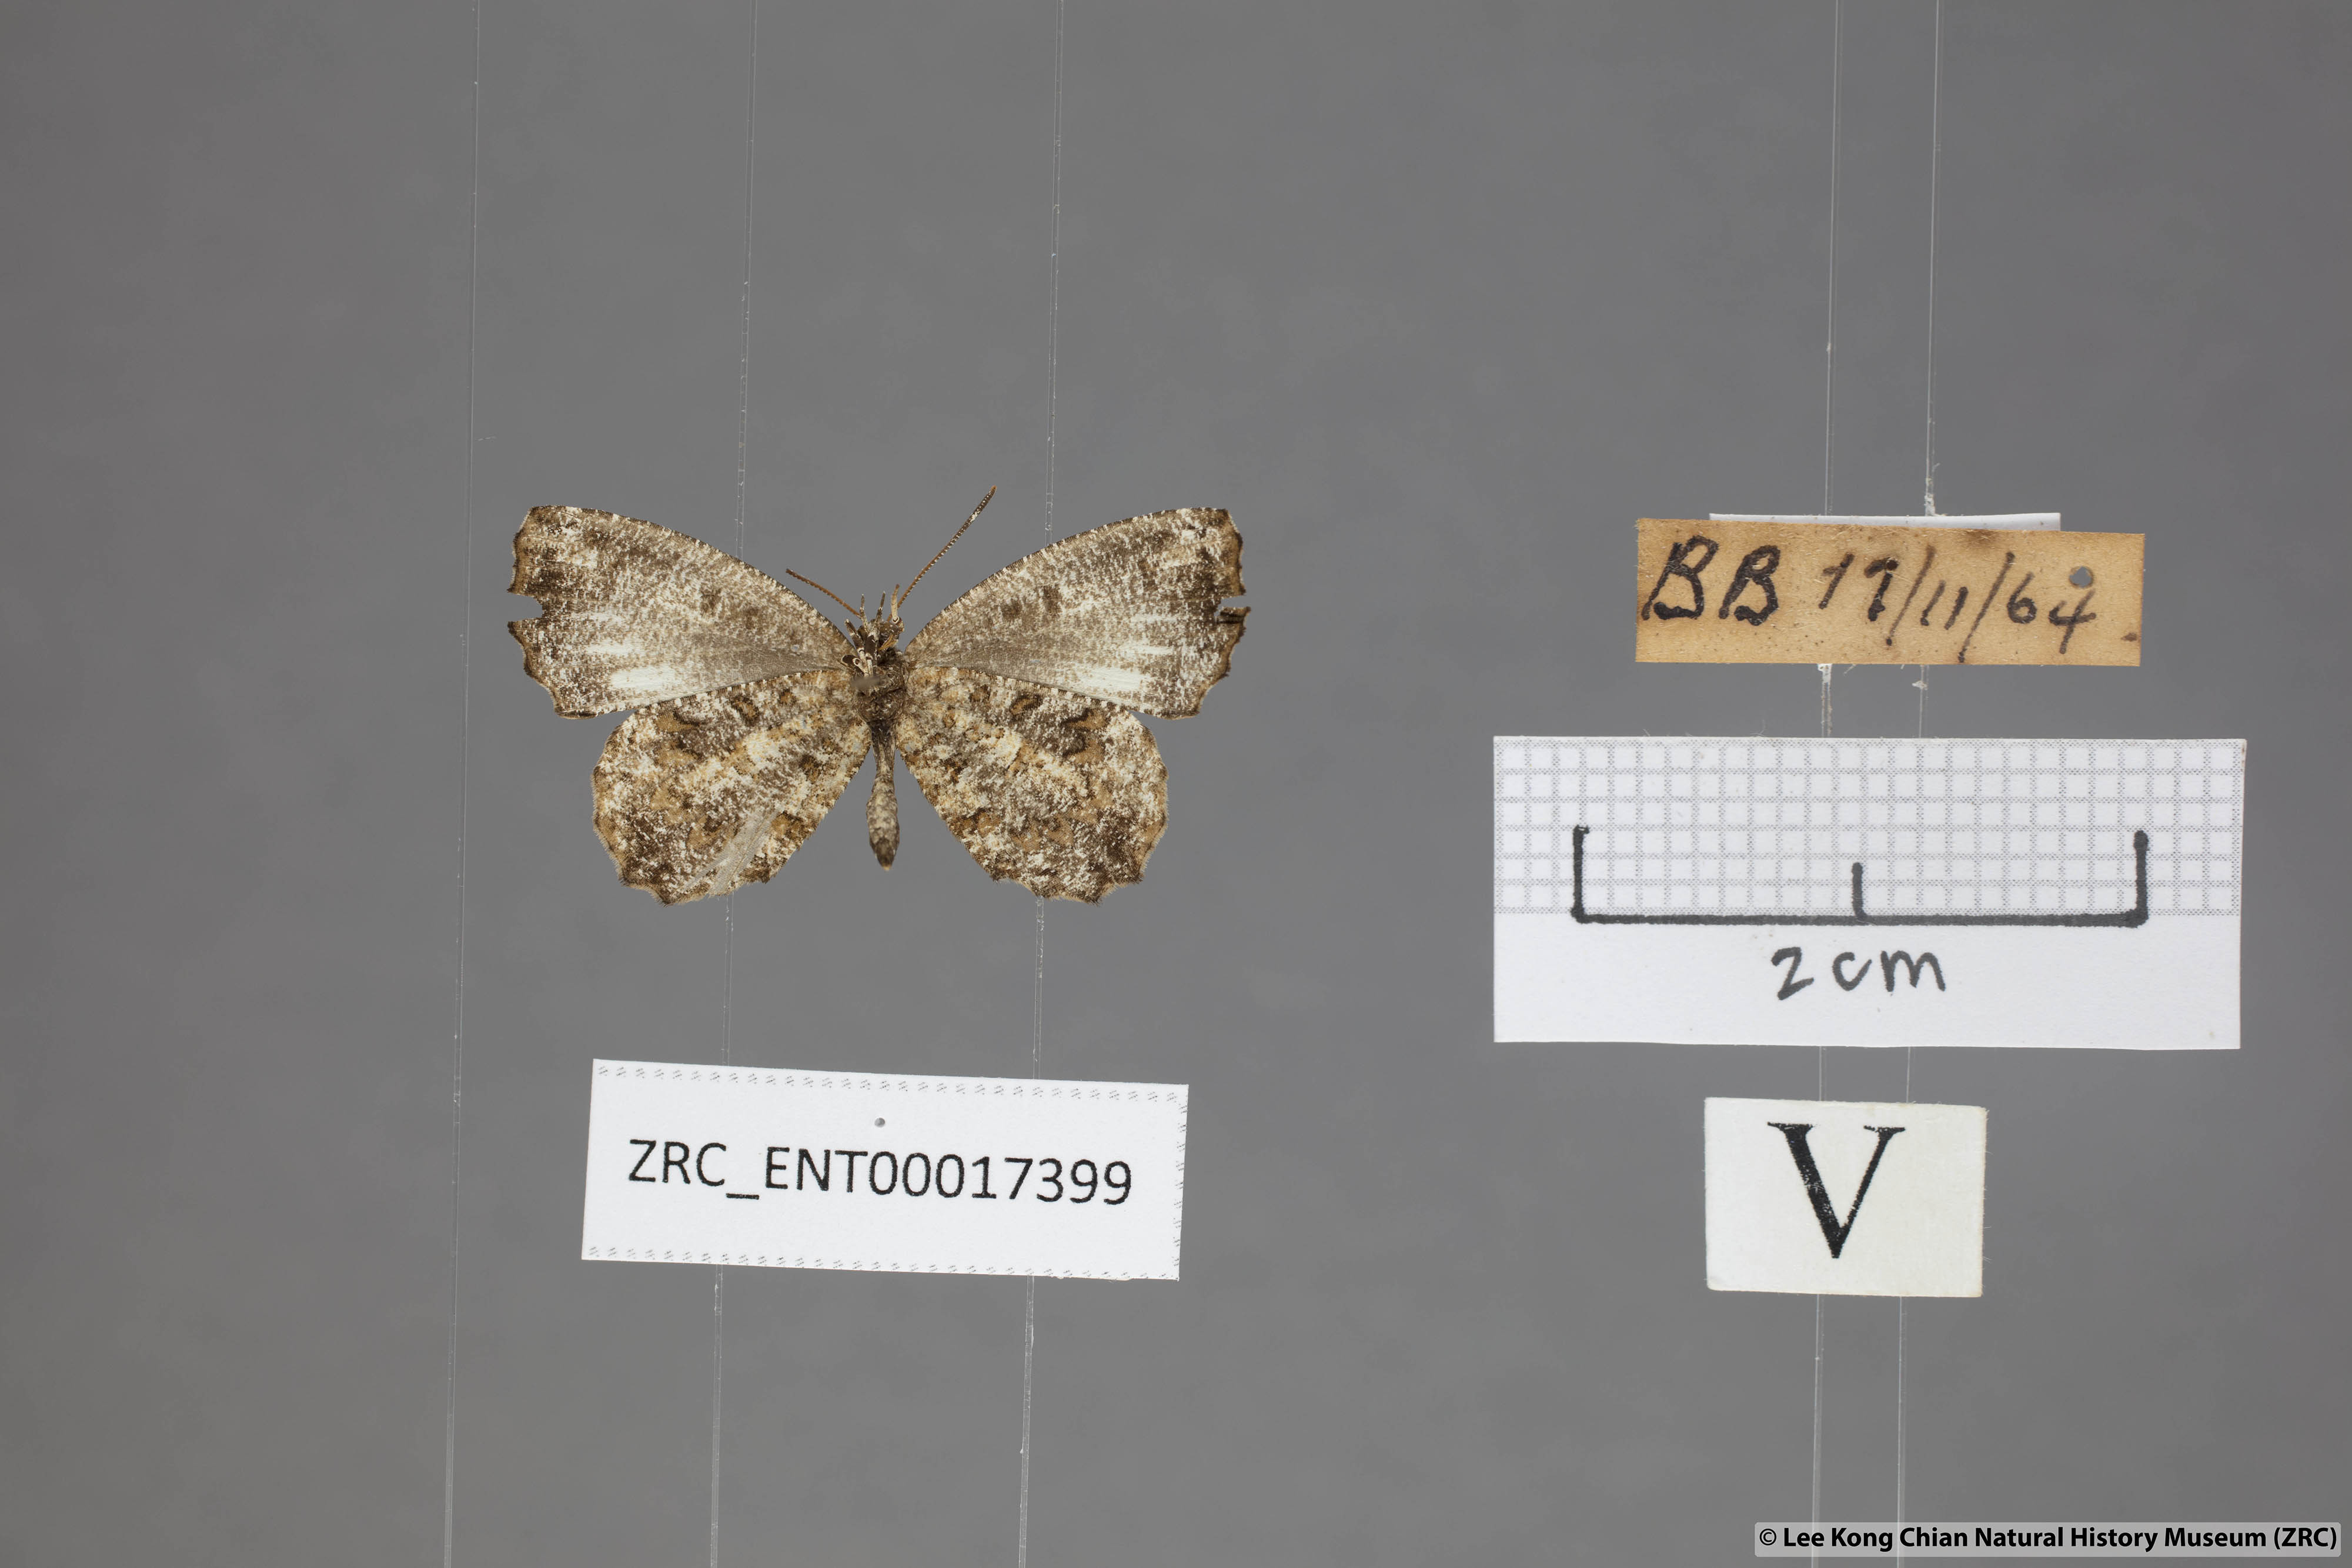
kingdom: Animalia
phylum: Arthropoda
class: Insecta
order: Lepidoptera
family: Lycaenidae
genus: Logania
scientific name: Logania marmorata
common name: Pale mottle
